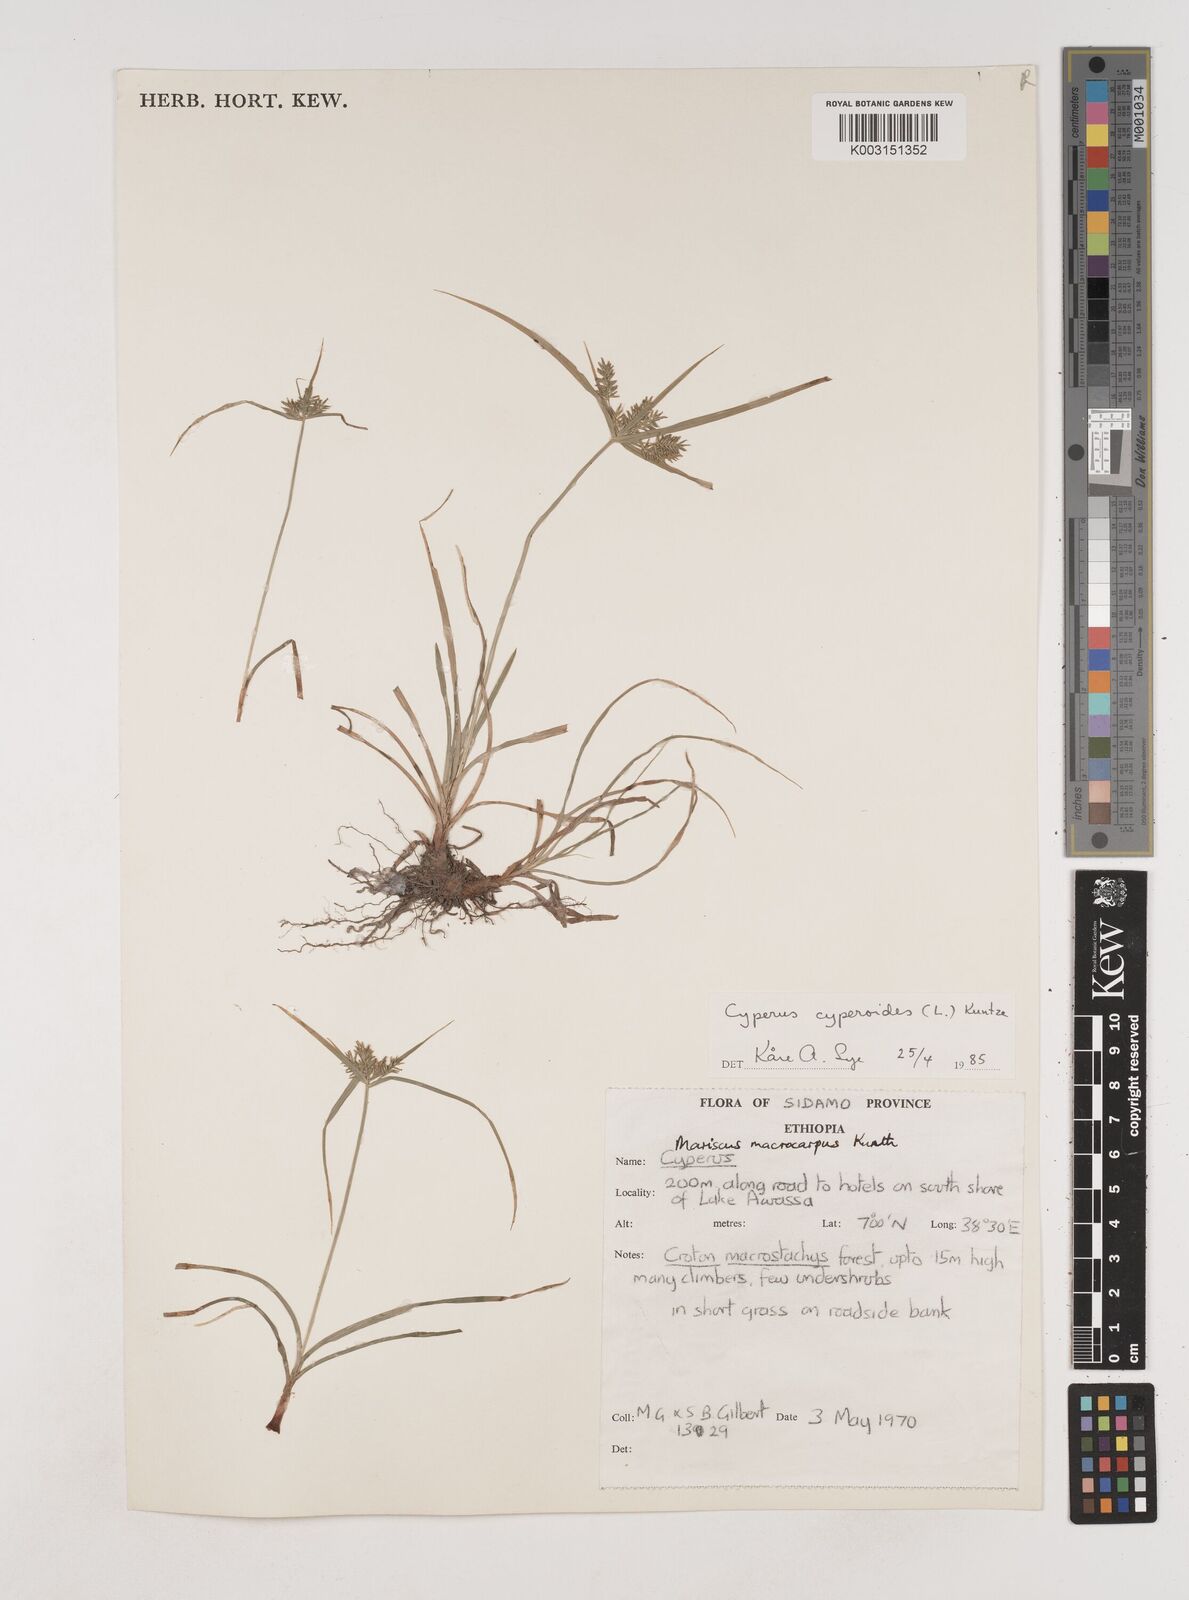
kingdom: Plantae
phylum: Tracheophyta
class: Liliopsida
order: Poales
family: Cyperaceae
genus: Cyperus
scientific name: Cyperus cyperoides
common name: Pacific island flat sedge
